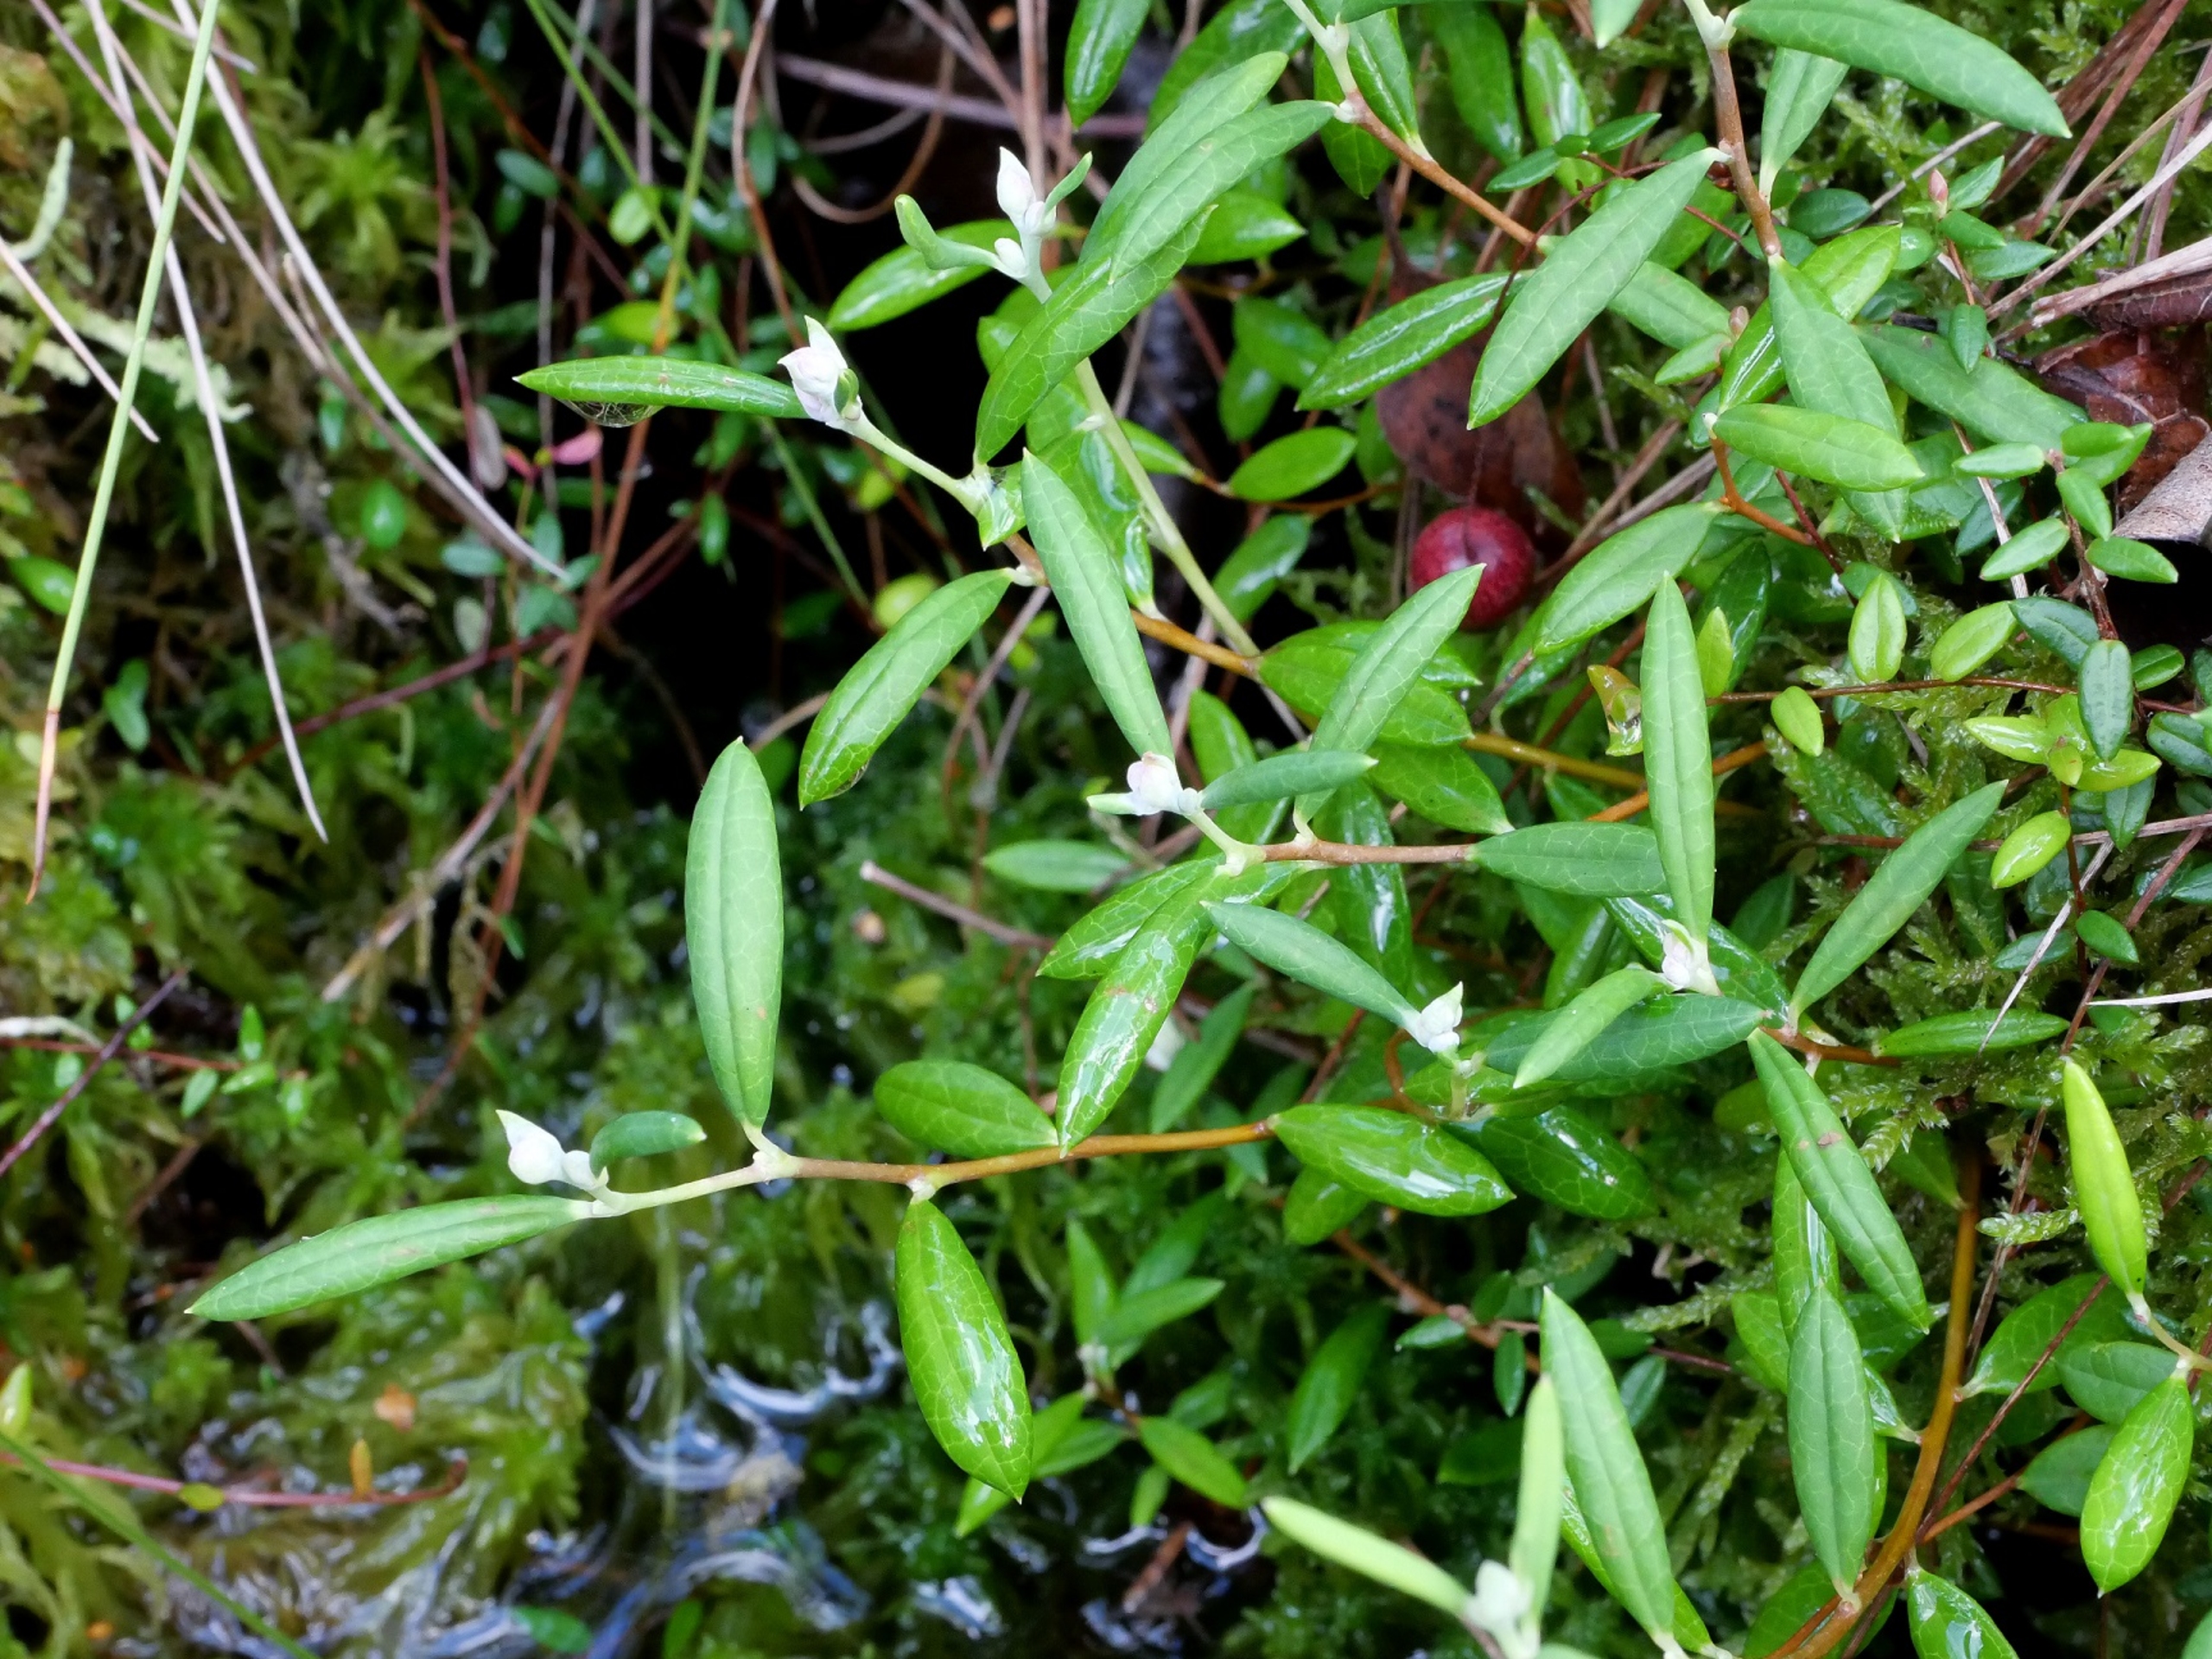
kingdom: Plantae
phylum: Tracheophyta
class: Magnoliopsida
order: Ericales
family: Ericaceae
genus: Andromeda
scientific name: Andromeda polifolia
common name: Rosmarinlyng
